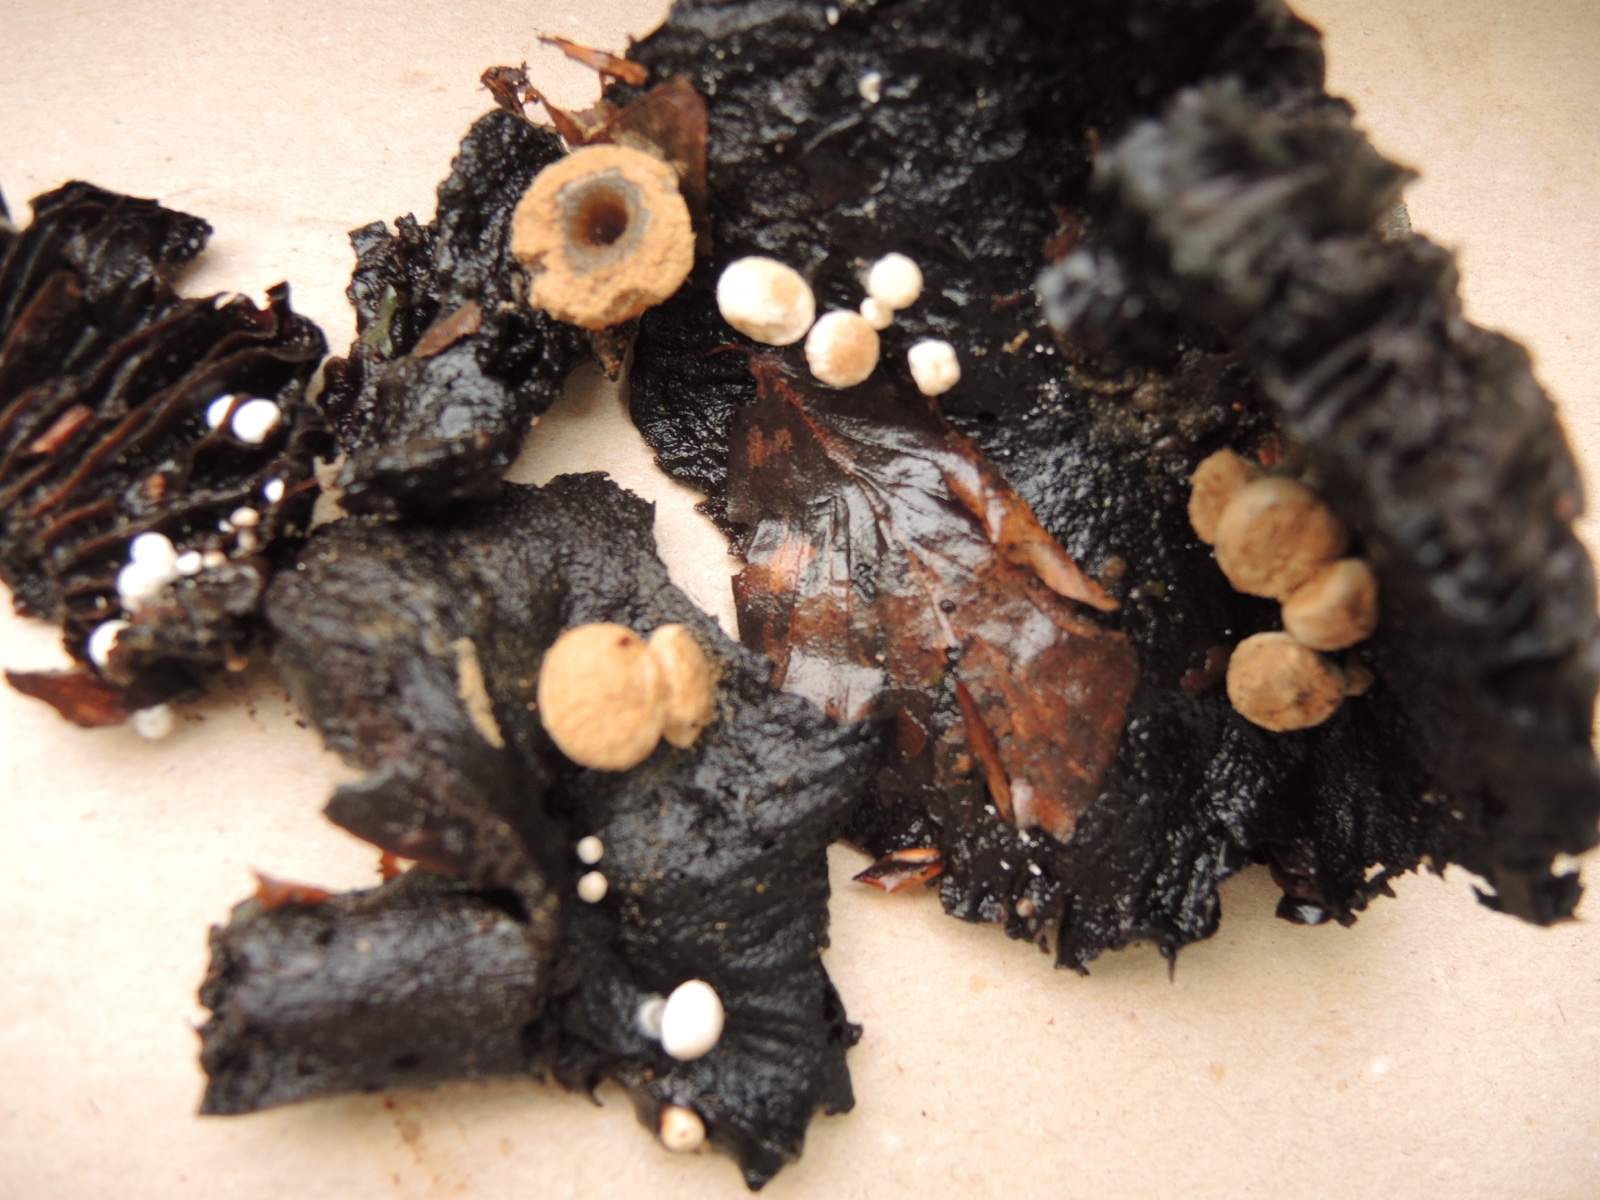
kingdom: Fungi
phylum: Basidiomycota
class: Agaricomycetes
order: Agaricales
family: Lyophyllaceae
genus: Asterophora
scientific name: Asterophora lycoperdoides
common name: brunpudret snyltehat
